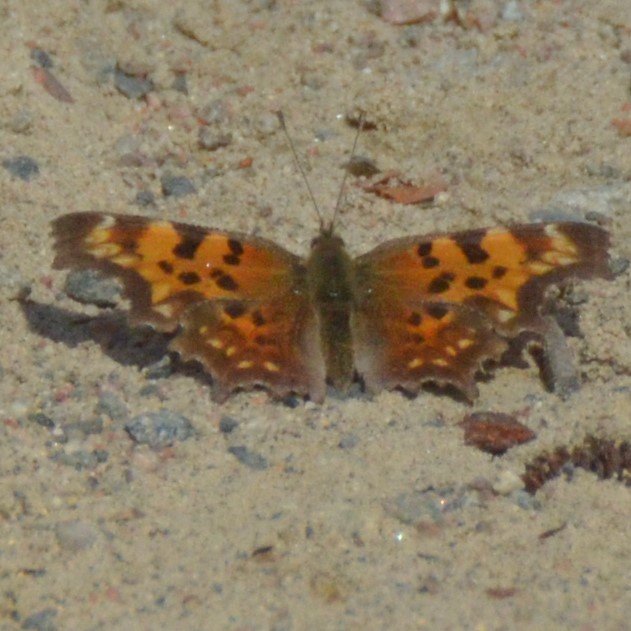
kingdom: Animalia
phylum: Arthropoda
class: Insecta
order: Lepidoptera
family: Nymphalidae
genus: Polygonia
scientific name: Polygonia faunus
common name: Green Comma
